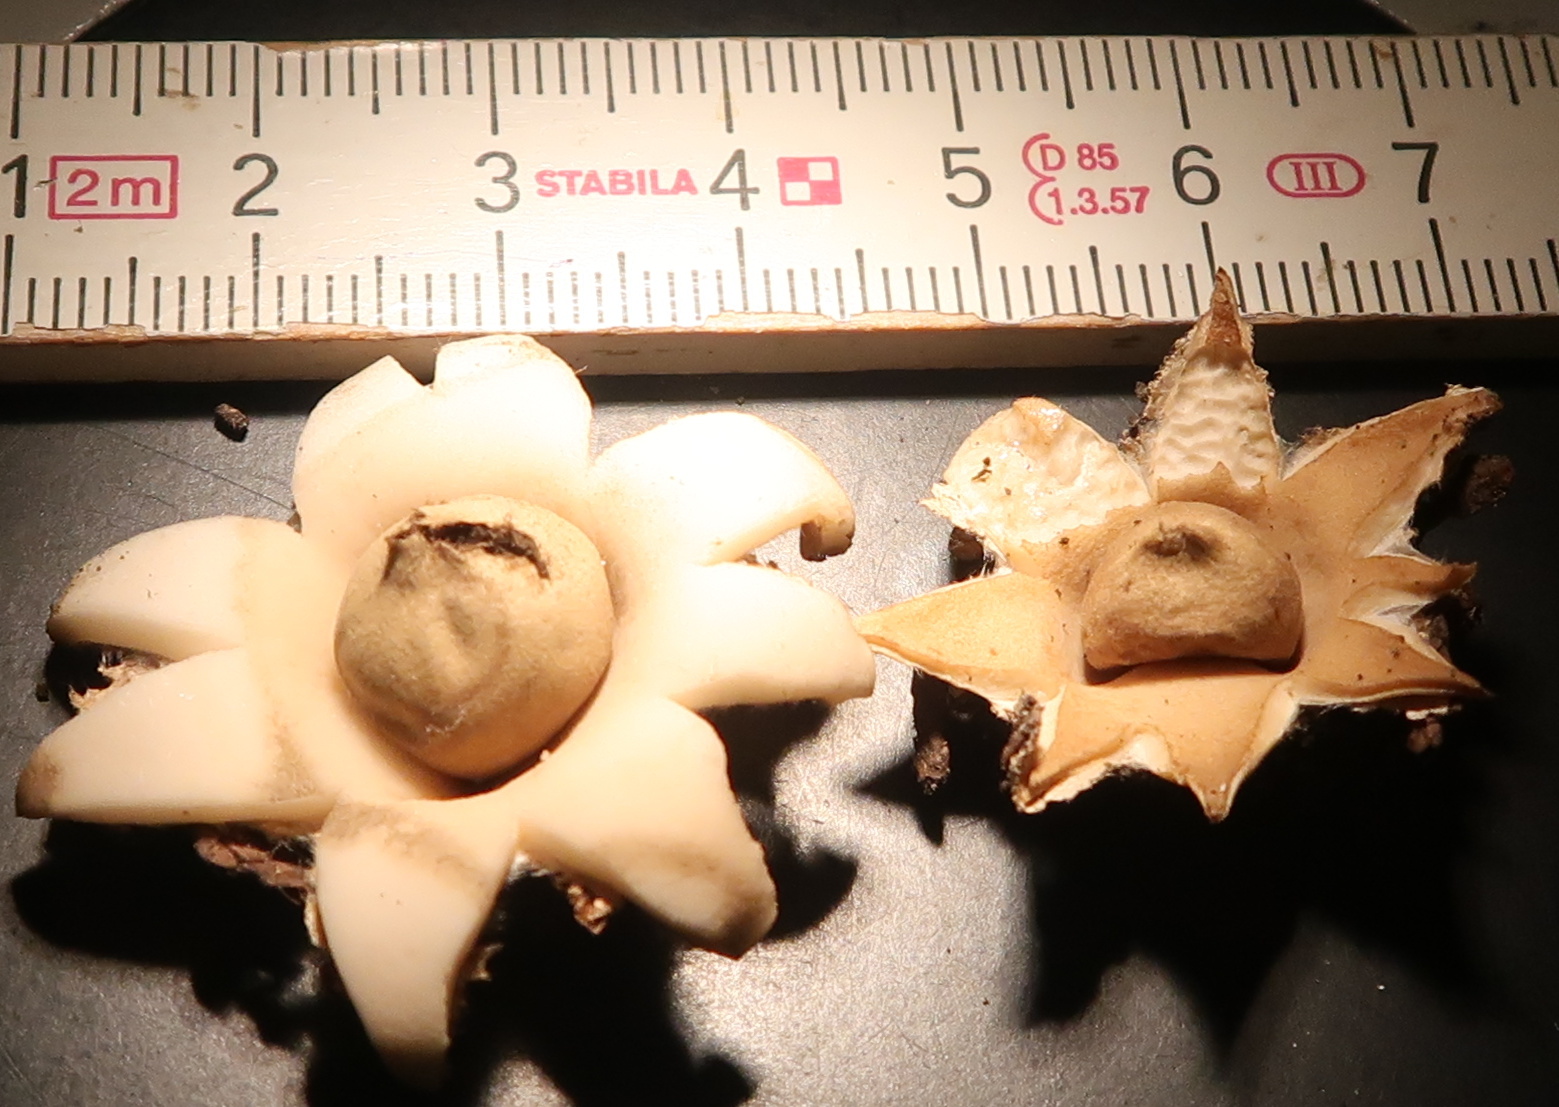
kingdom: Fungi
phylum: Basidiomycota
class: Agaricomycetes
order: Geastrales
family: Geastraceae
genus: Geastrum
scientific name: Geastrum fimbriatum
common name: frynset stjernebold
